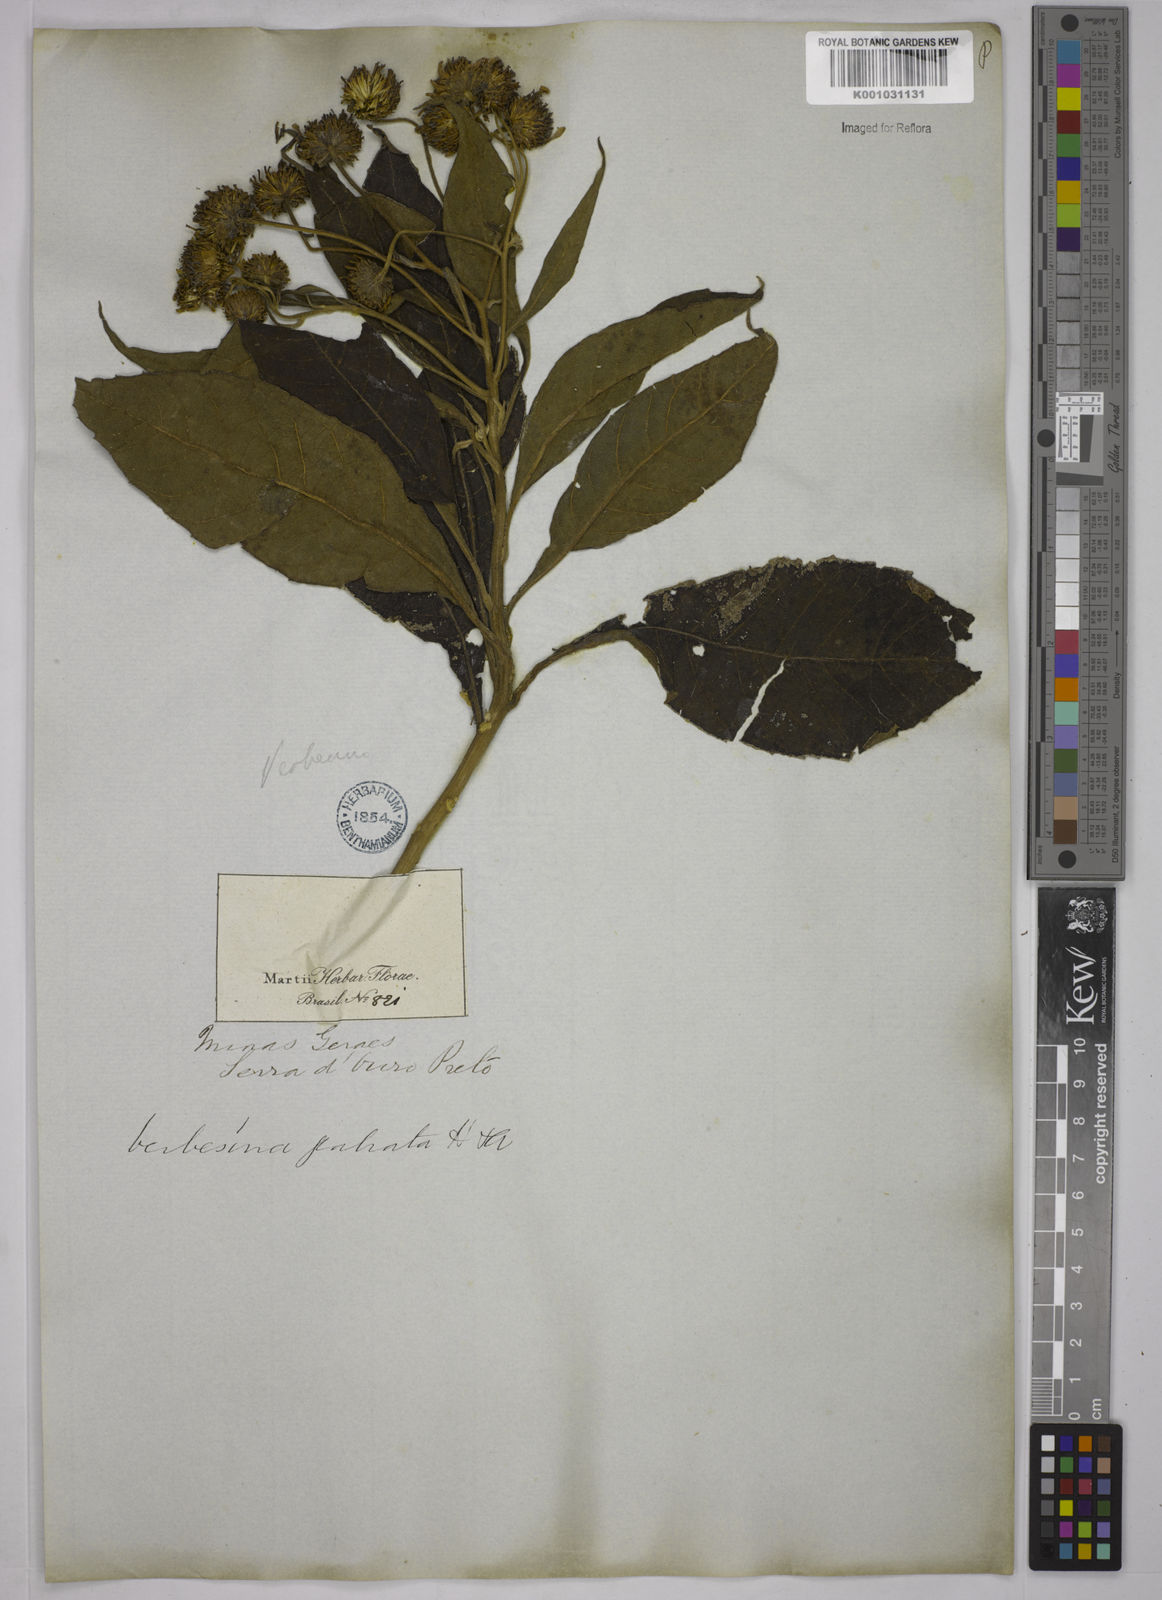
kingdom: Plantae
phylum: Tracheophyta
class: Magnoliopsida
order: Asterales
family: Asteraceae
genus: Verbesina
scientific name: Verbesina glabrata
